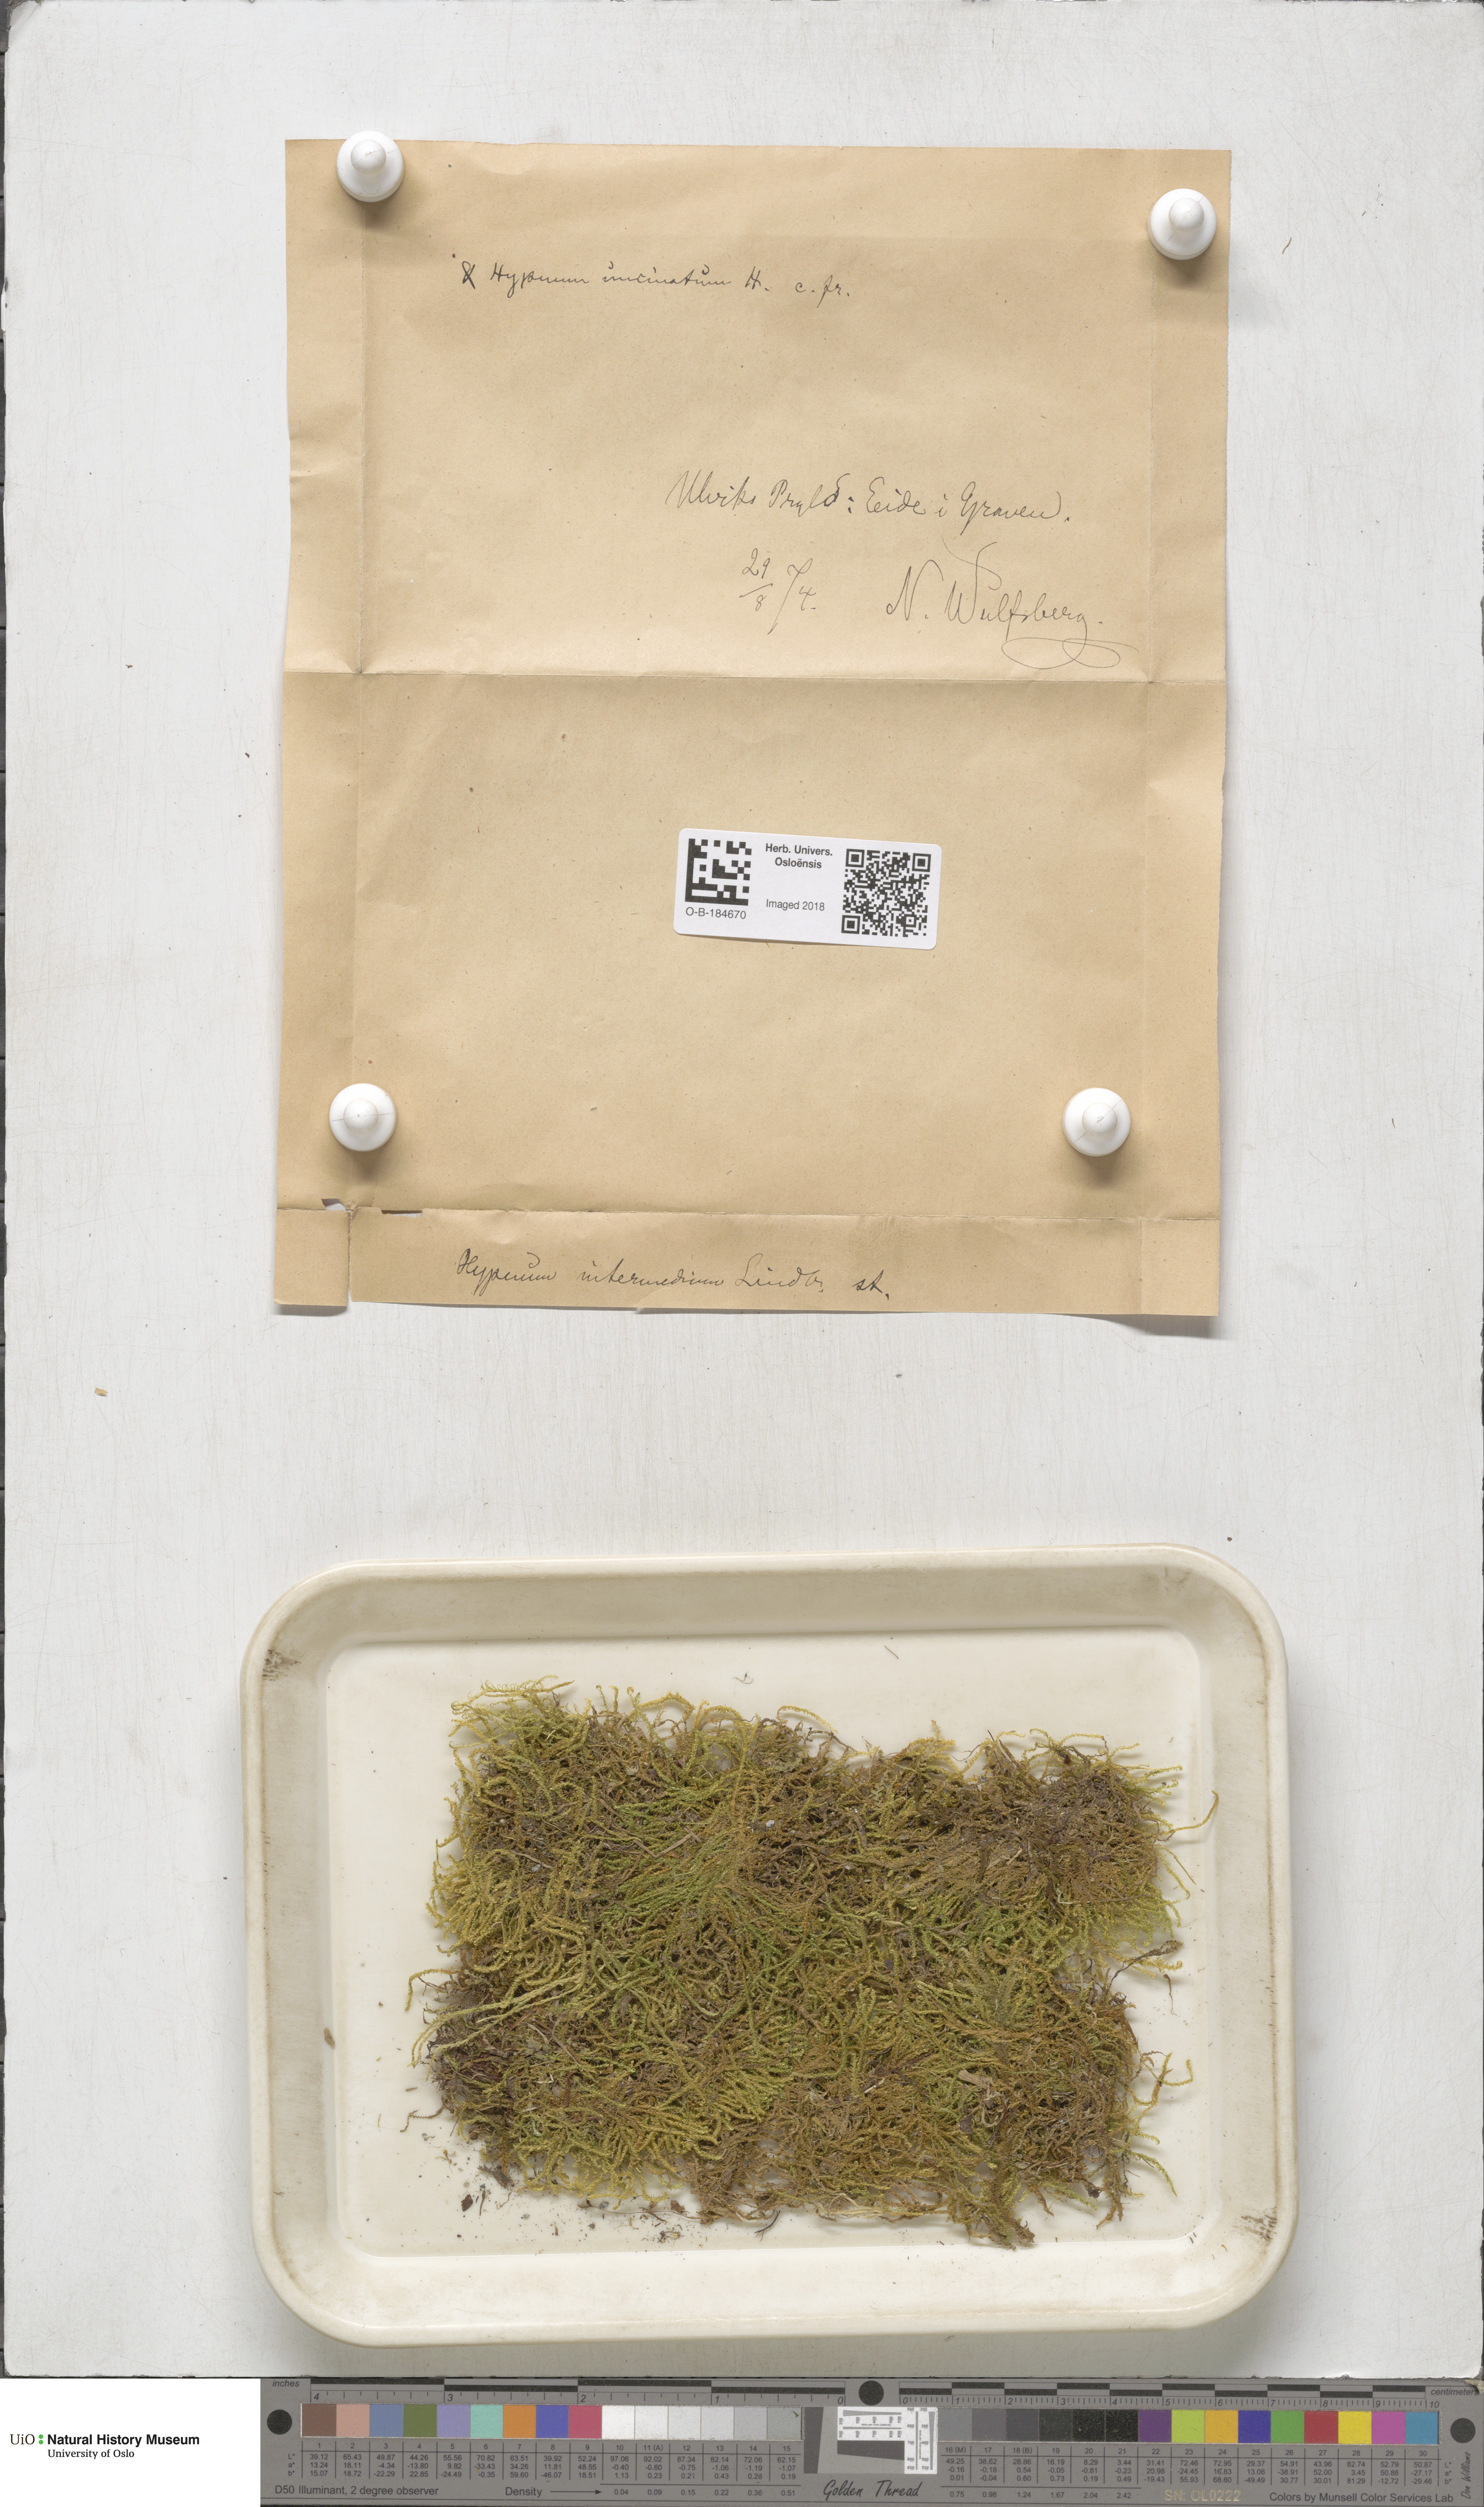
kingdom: Plantae
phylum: Bryophyta
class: Bryopsida
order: Hypnales
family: Scorpidiaceae
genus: Scorpidium
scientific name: Scorpidium cossonii
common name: Cosson's hook moss
